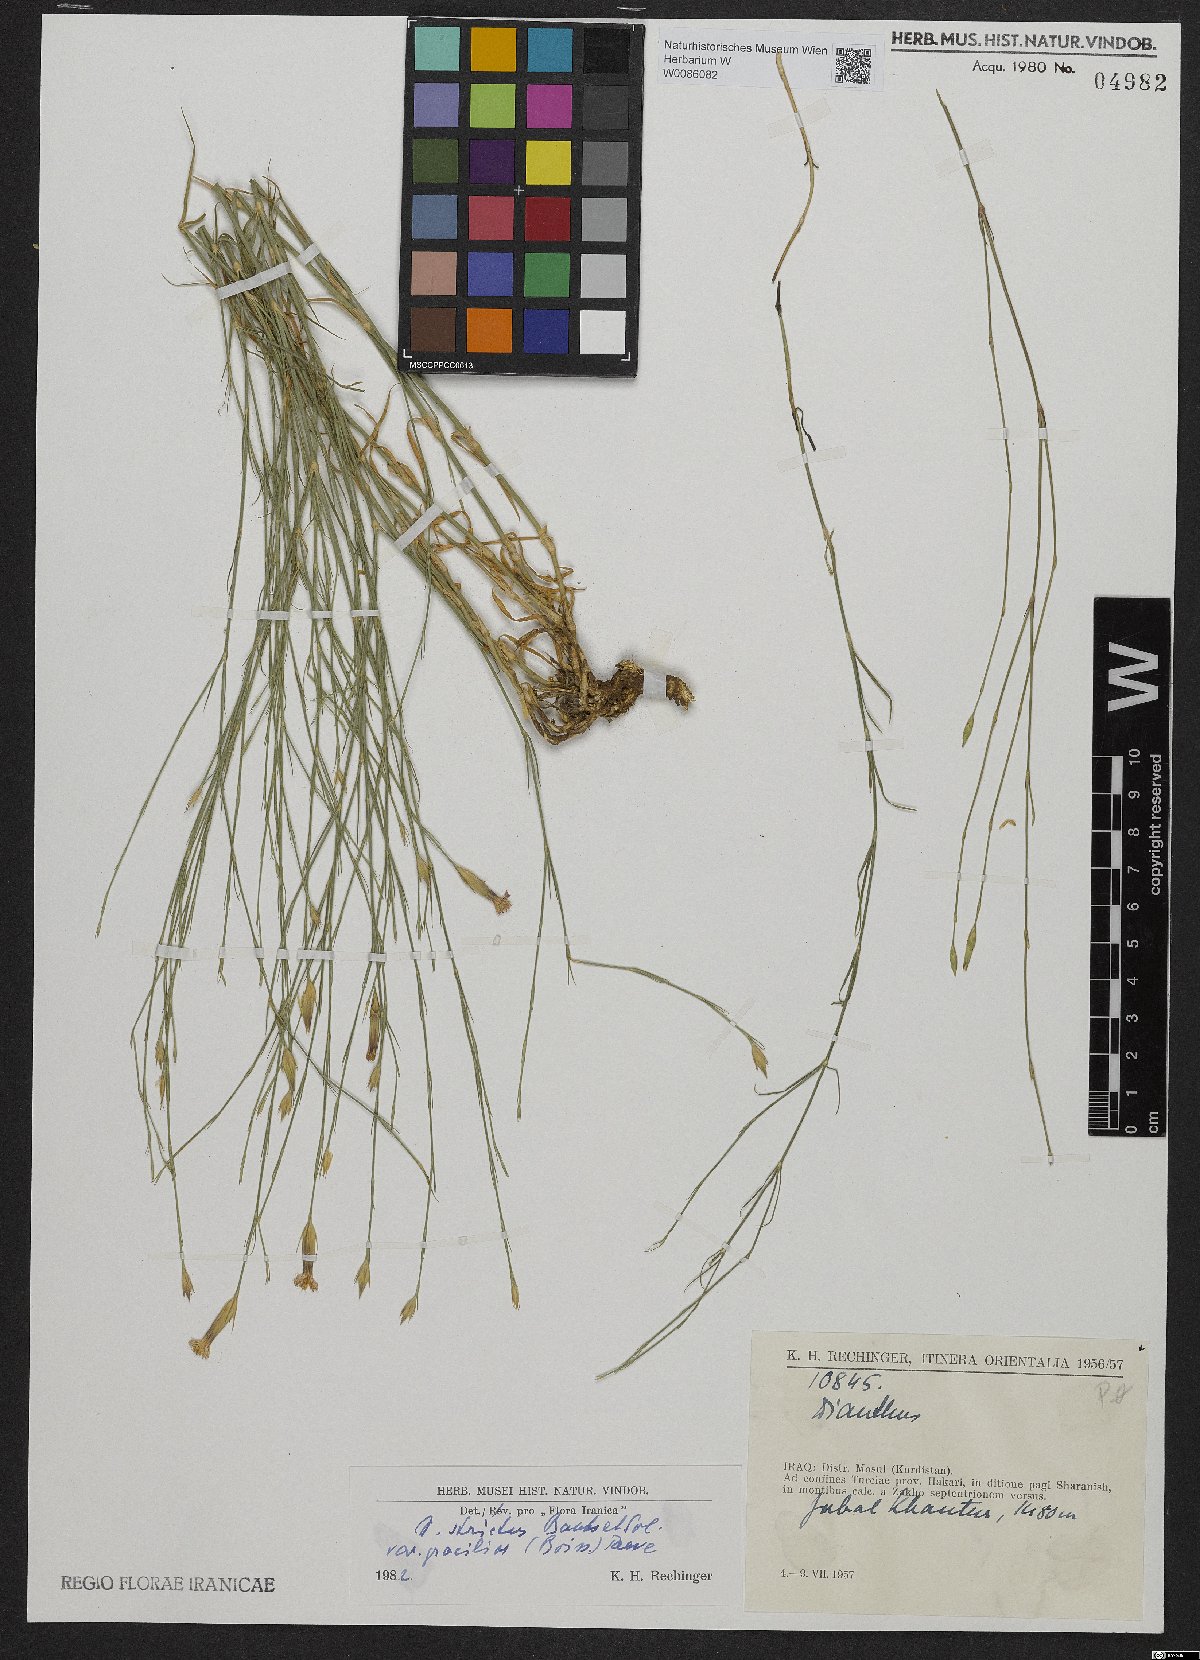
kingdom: Plantae
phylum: Tracheophyta
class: Magnoliopsida
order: Caryophyllales
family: Caryophyllaceae
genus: Dianthus
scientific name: Dianthus strictus
